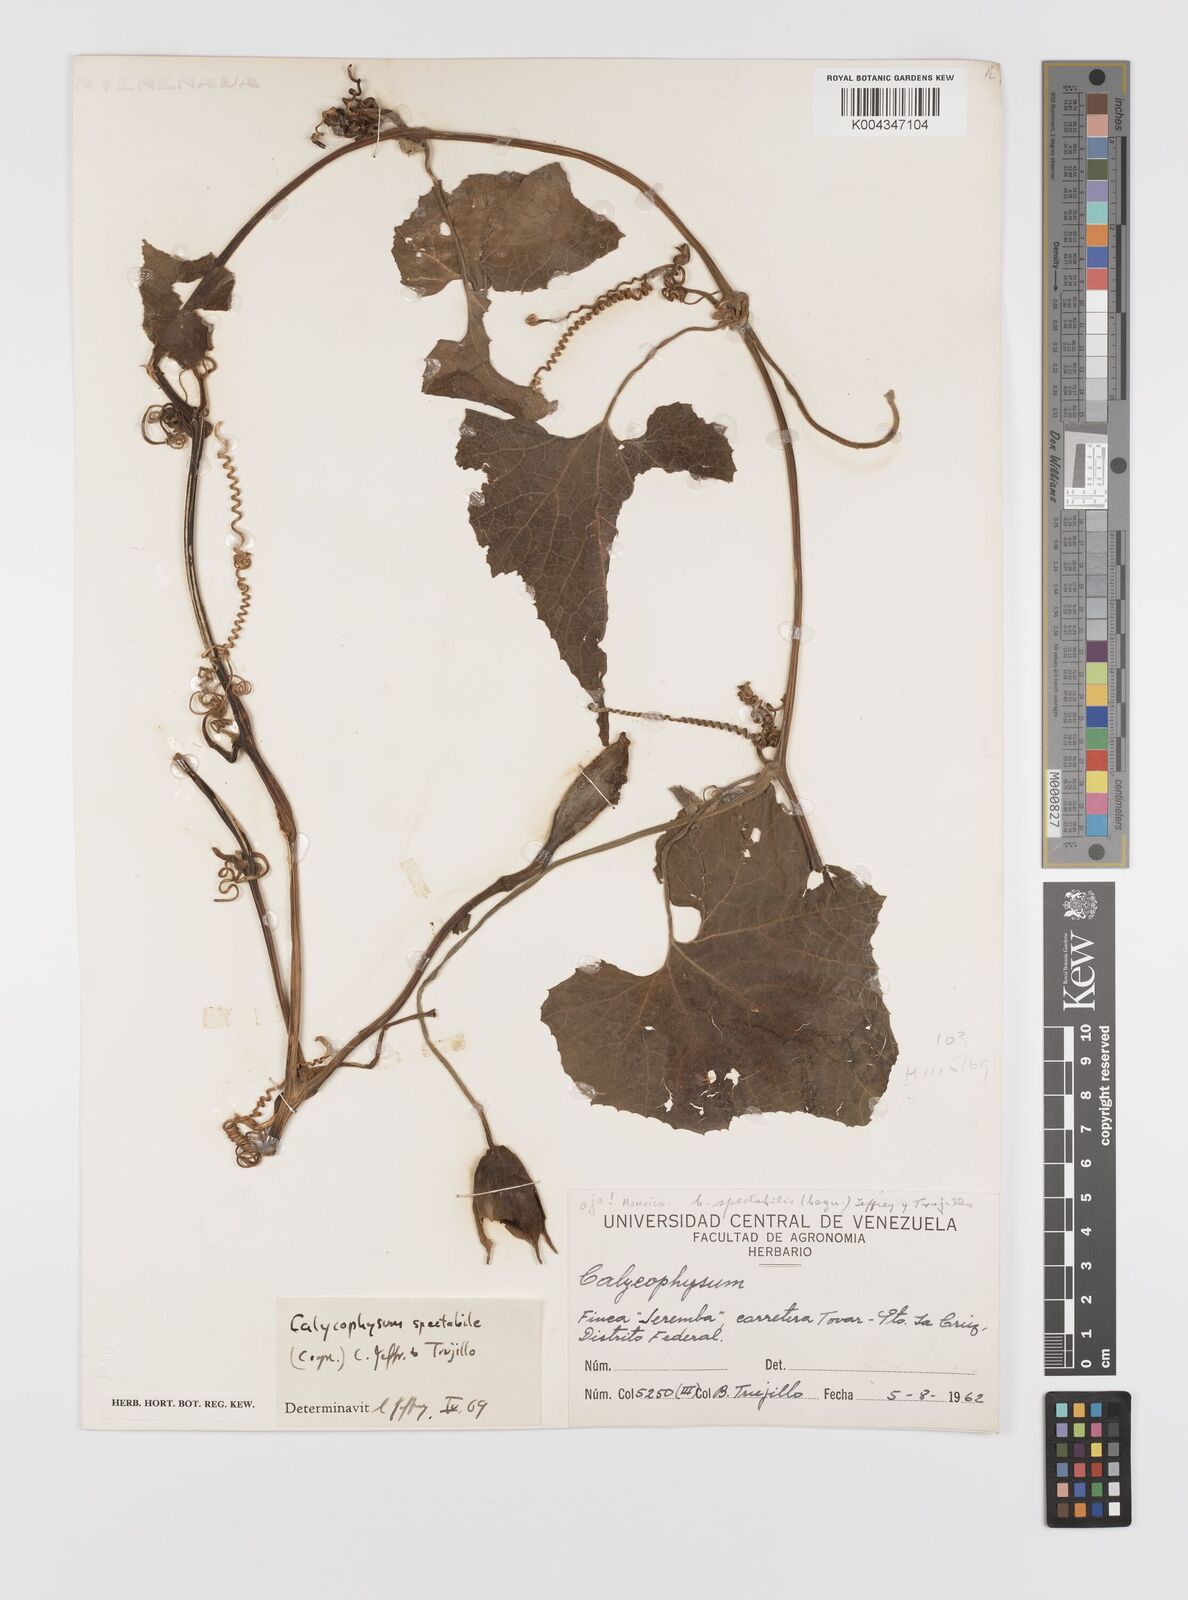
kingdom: Plantae
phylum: Tracheophyta
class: Magnoliopsida
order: Cucurbitales
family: Cucurbitaceae
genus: Calycophysum
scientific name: Calycophysum spectabile
